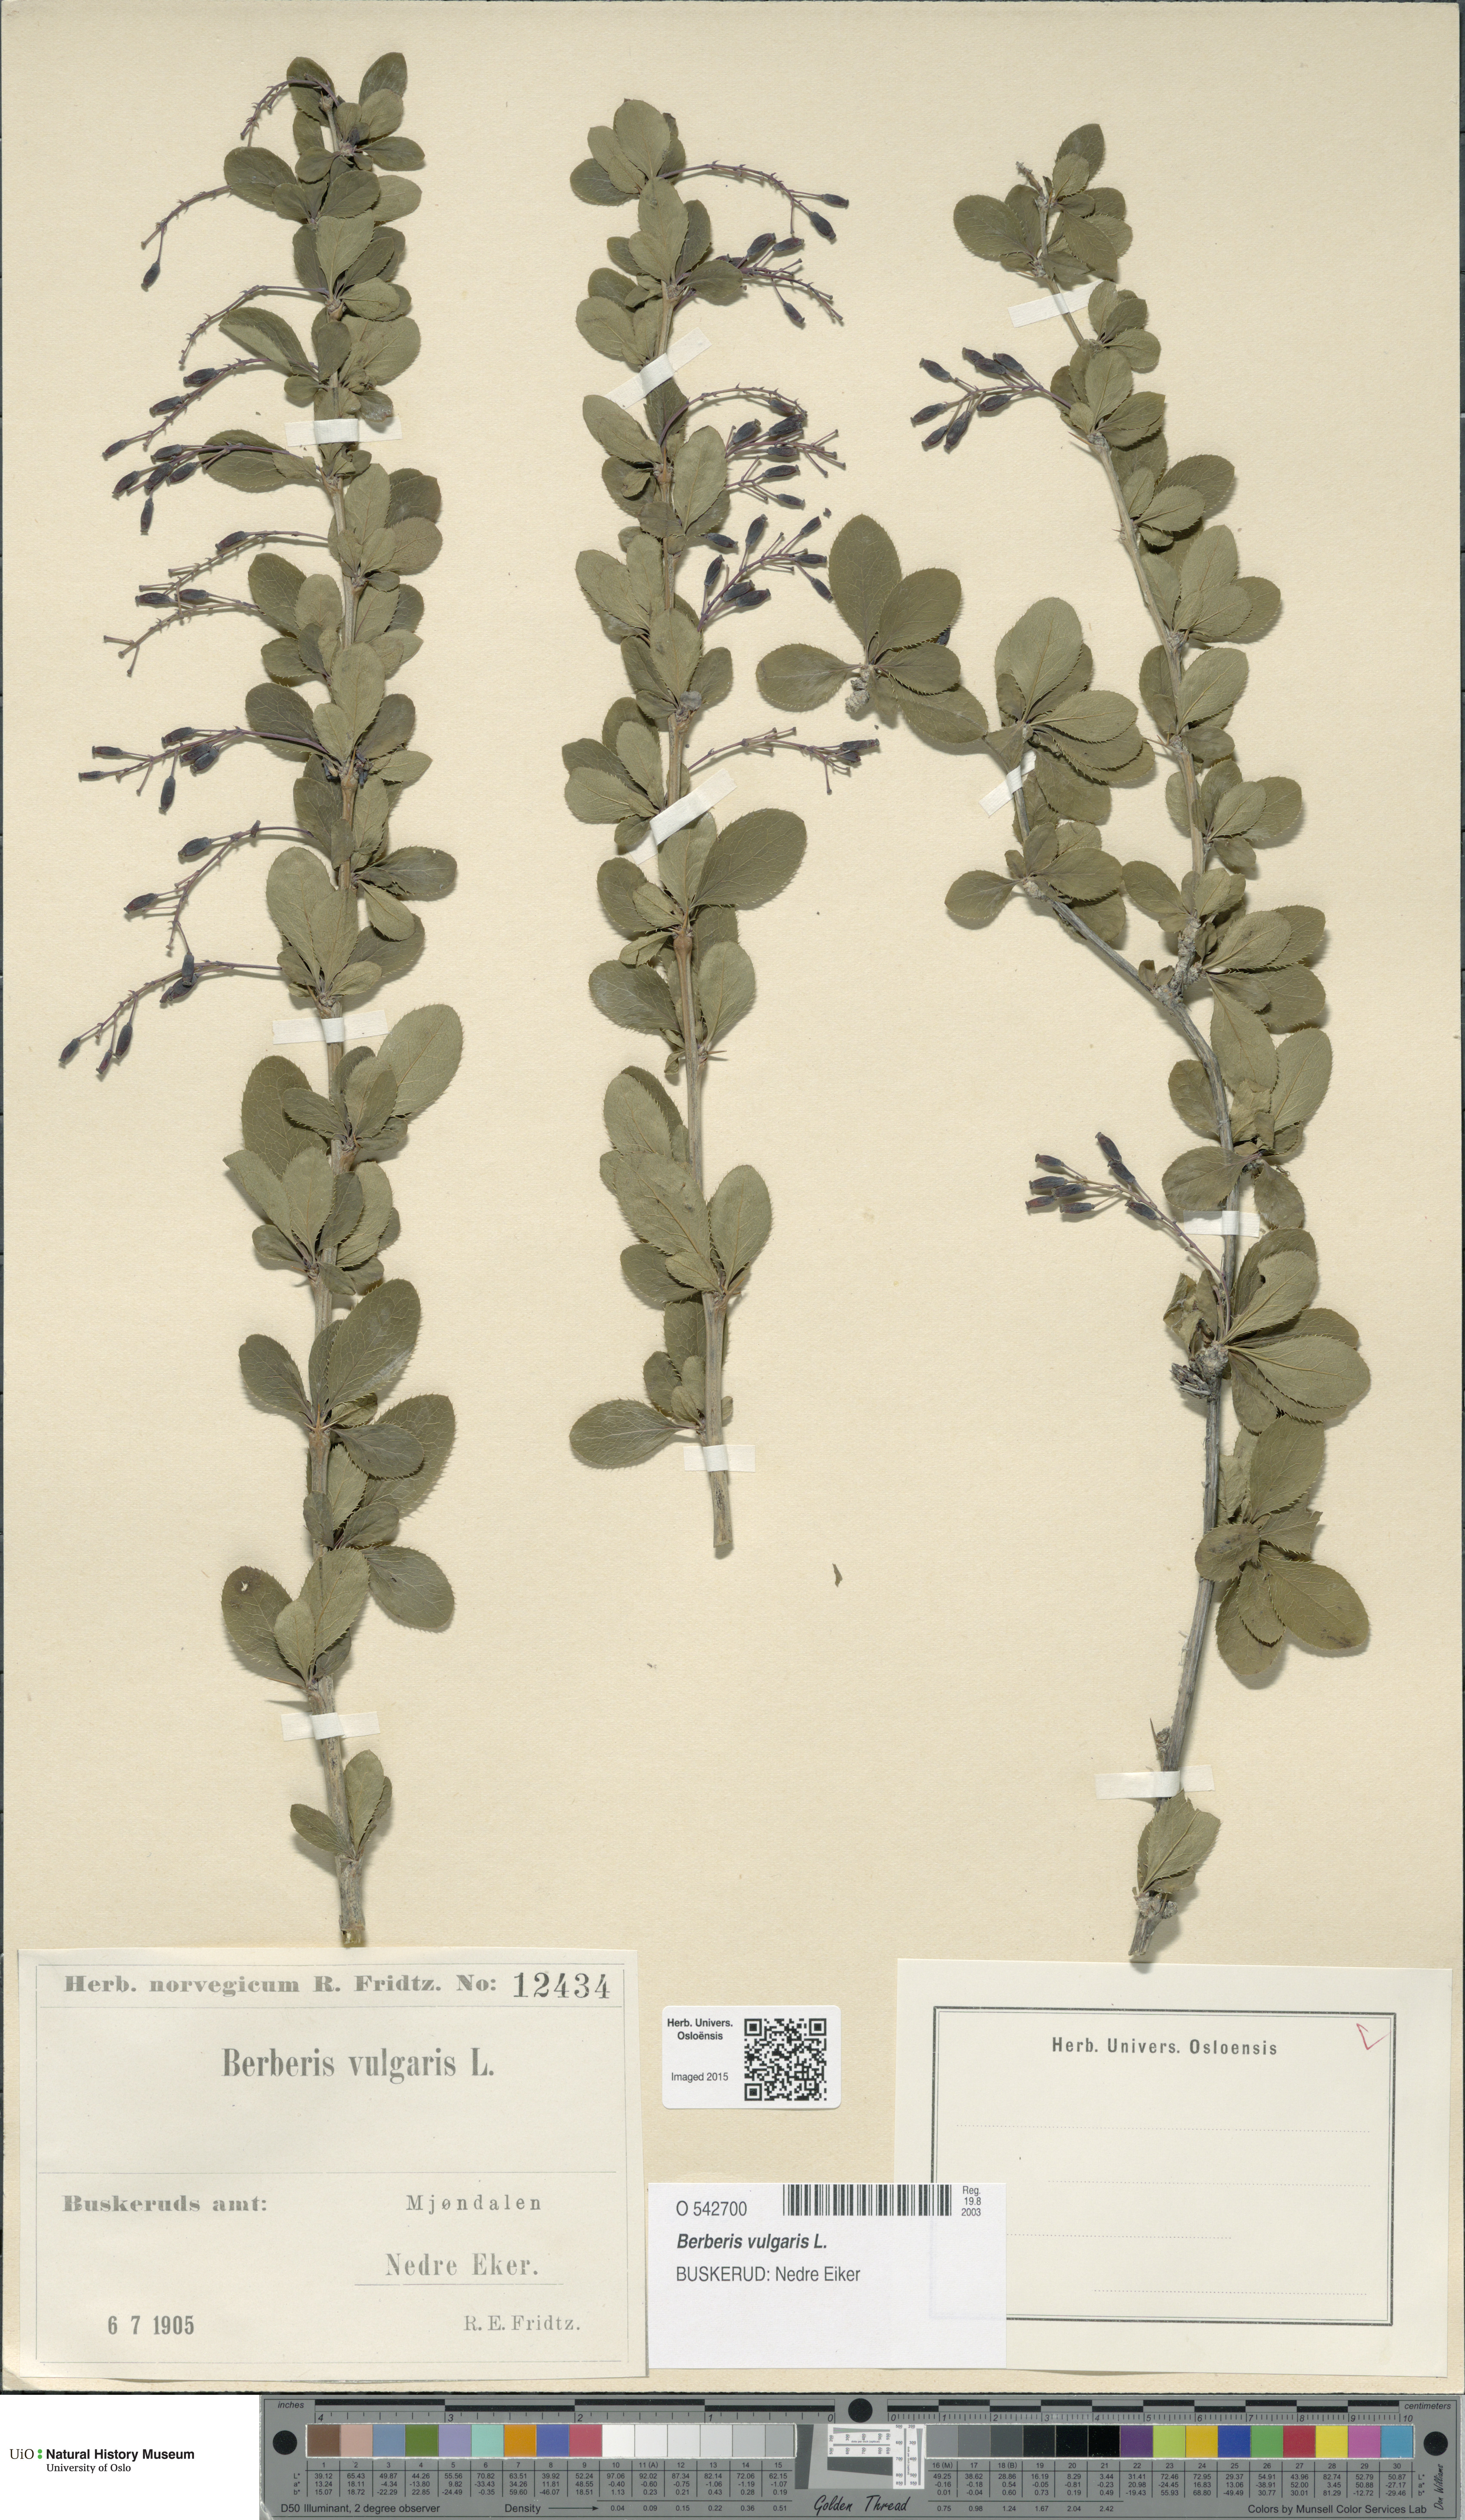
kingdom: Plantae
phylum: Tracheophyta
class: Magnoliopsida
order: Ranunculales
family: Berberidaceae
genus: Berberis
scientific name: Berberis vulgaris
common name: Barberry
